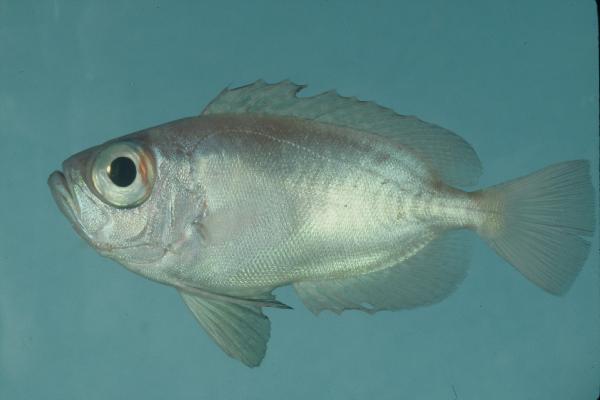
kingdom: Animalia
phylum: Chordata
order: Perciformes
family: Priacanthidae
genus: Priacanthus
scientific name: Priacanthus blochii
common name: Paeony bulleye
